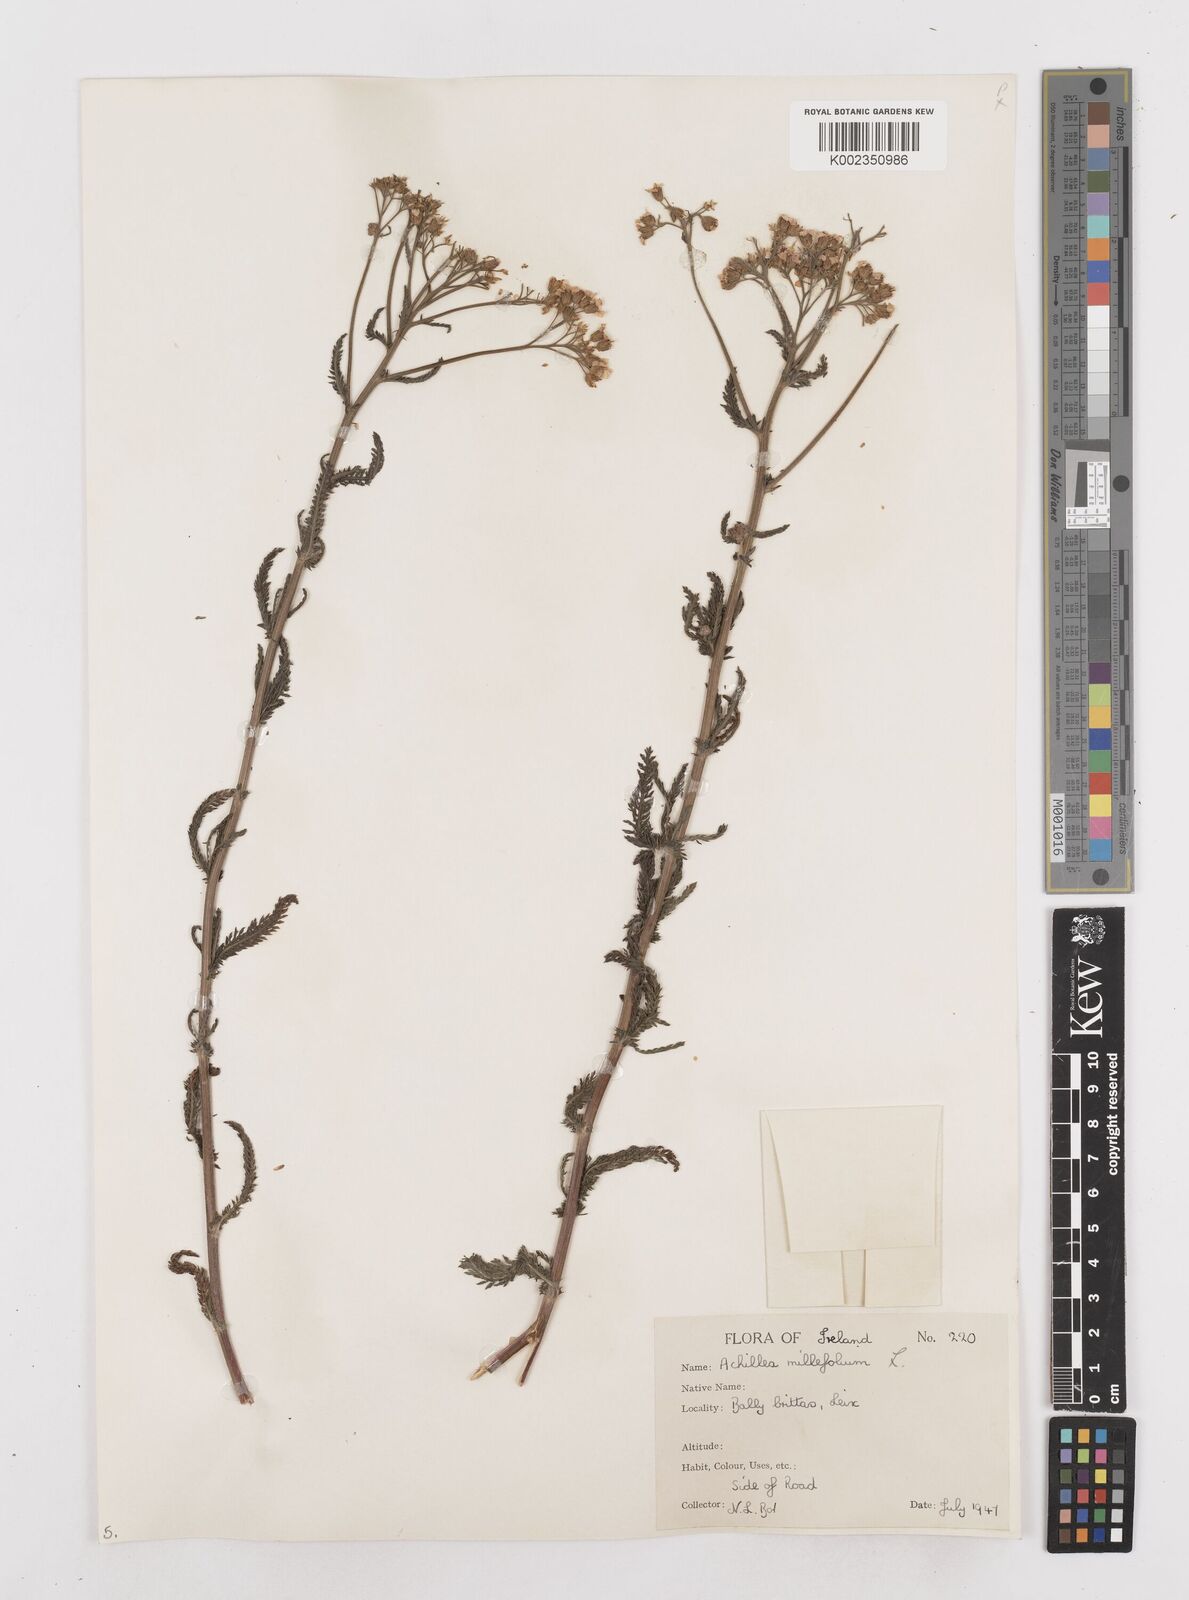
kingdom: Plantae
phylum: Tracheophyta
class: Magnoliopsida
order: Asterales
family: Asteraceae
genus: Achillea
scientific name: Achillea millefolium
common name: Yarrow
